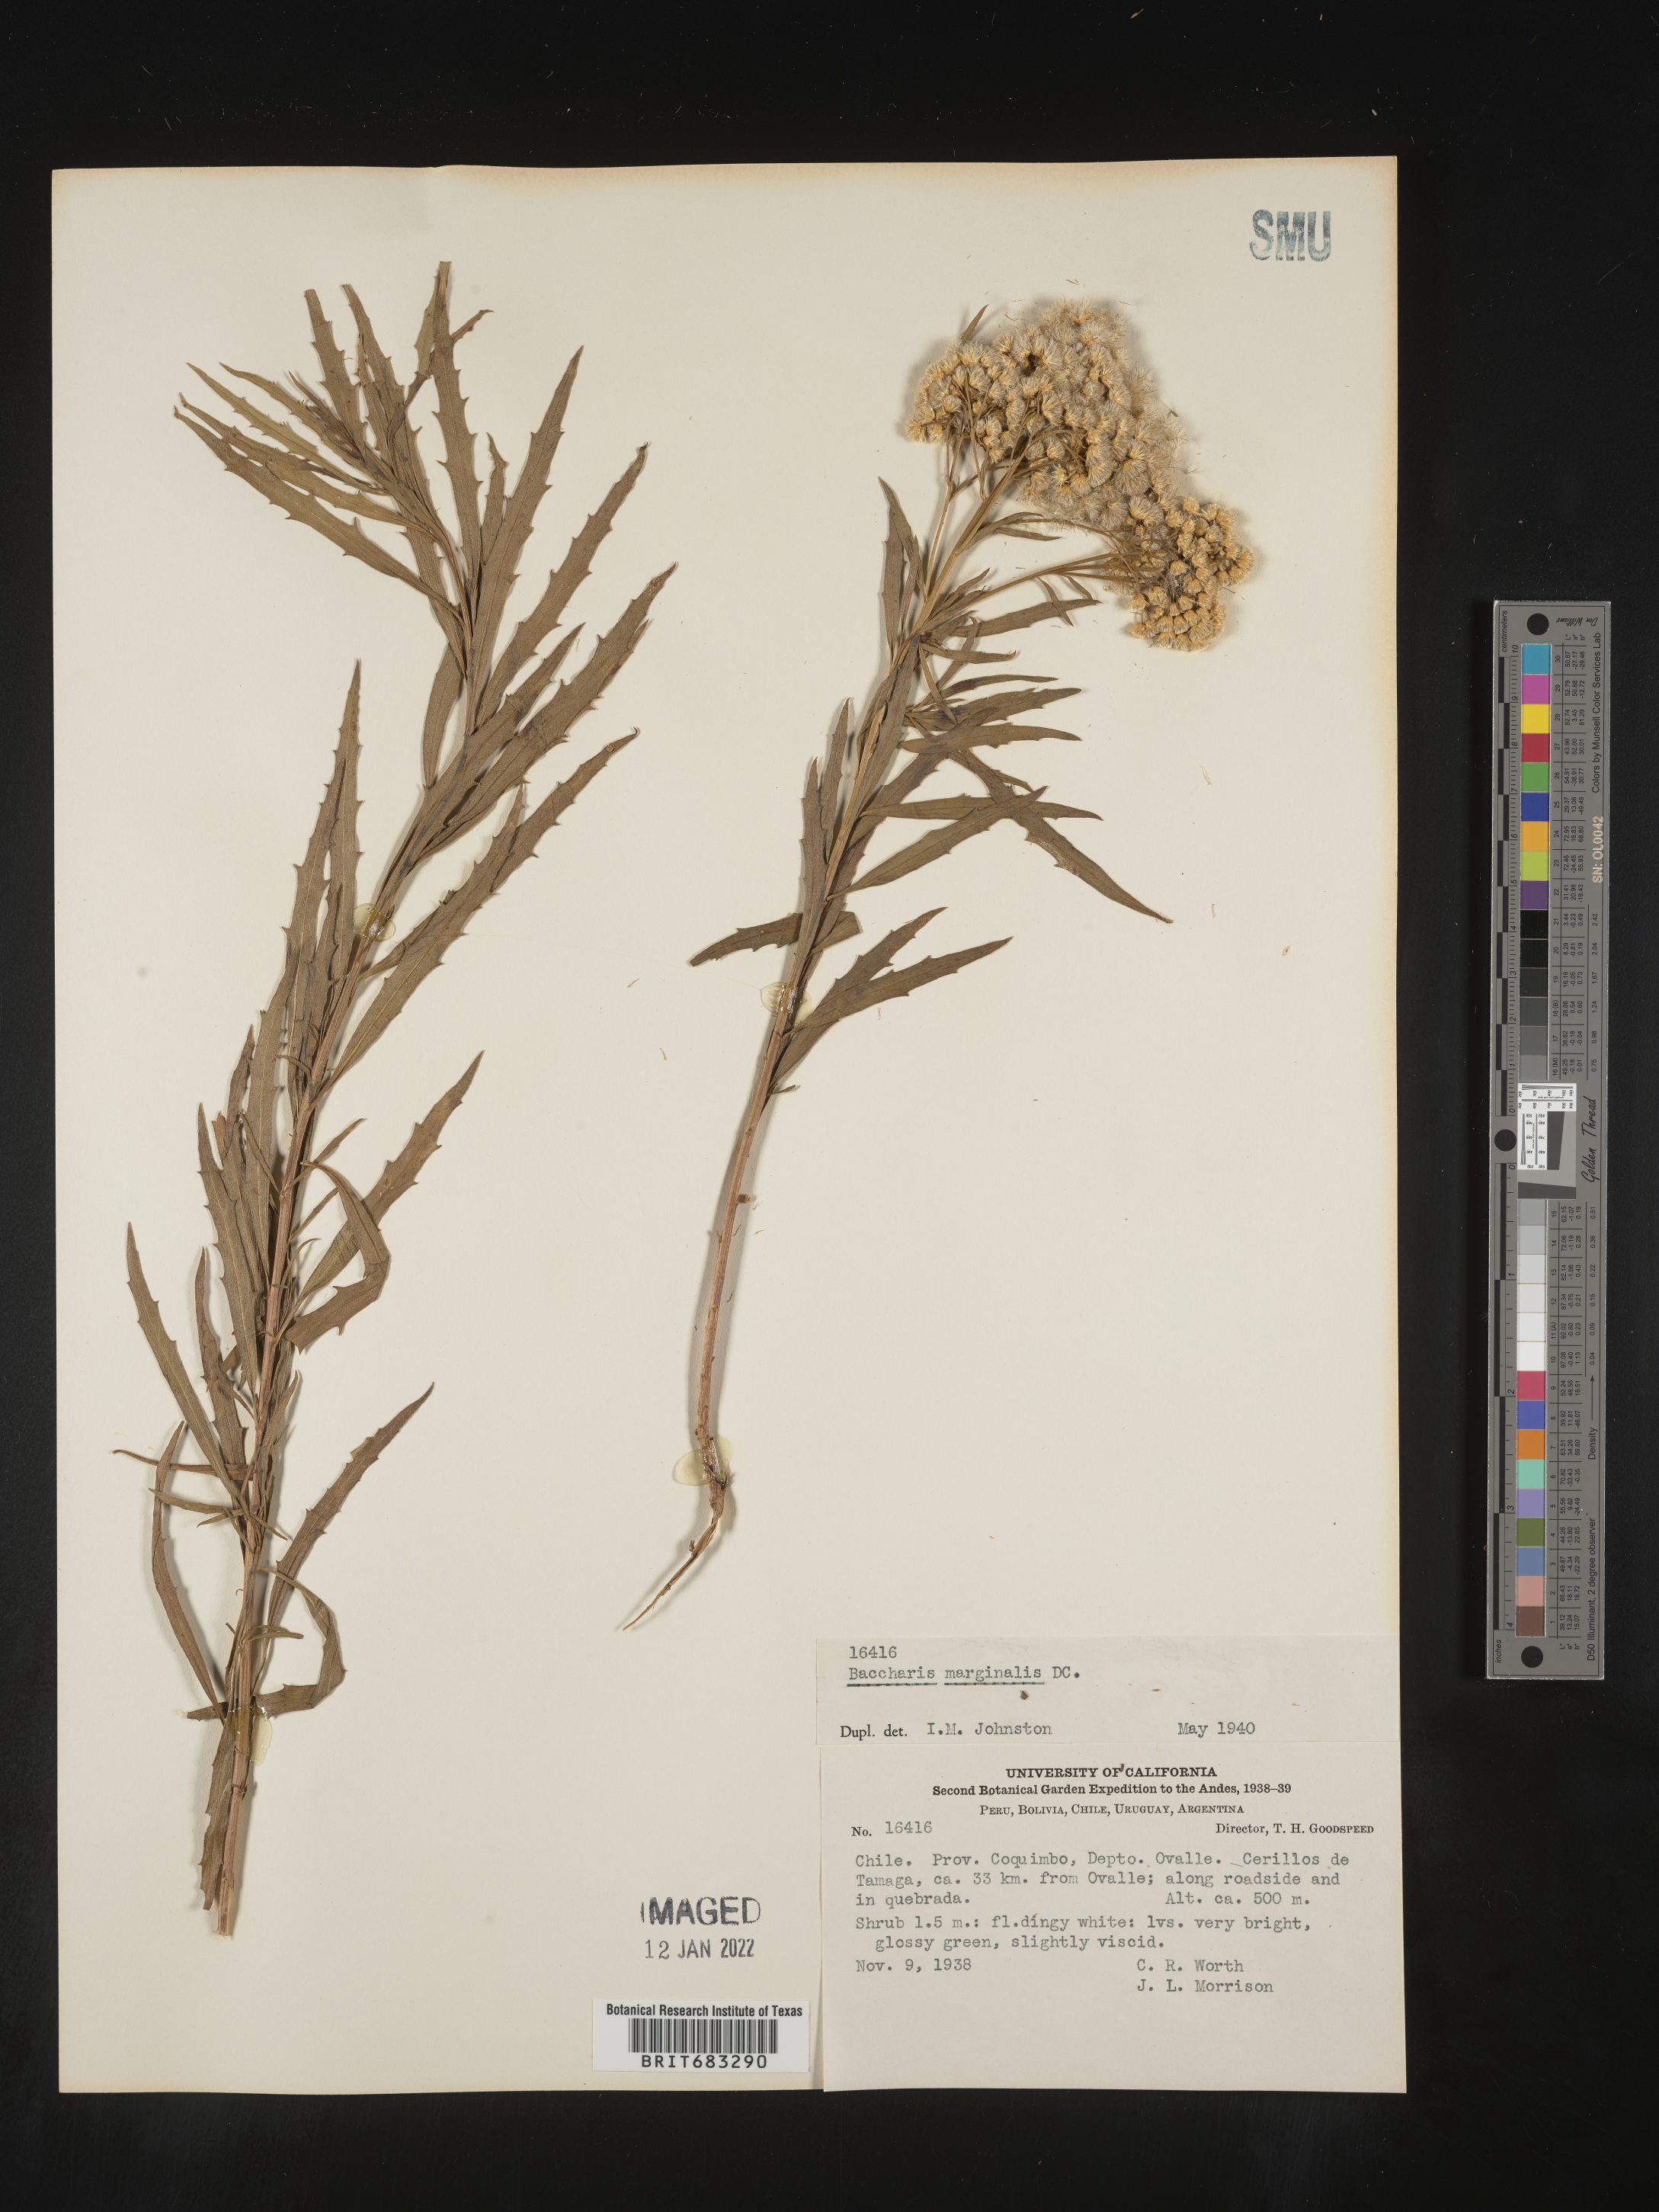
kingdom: Plantae
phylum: Tracheophyta
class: Magnoliopsida
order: Asterales
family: Asteraceae
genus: Baccharis
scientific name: Baccharis
